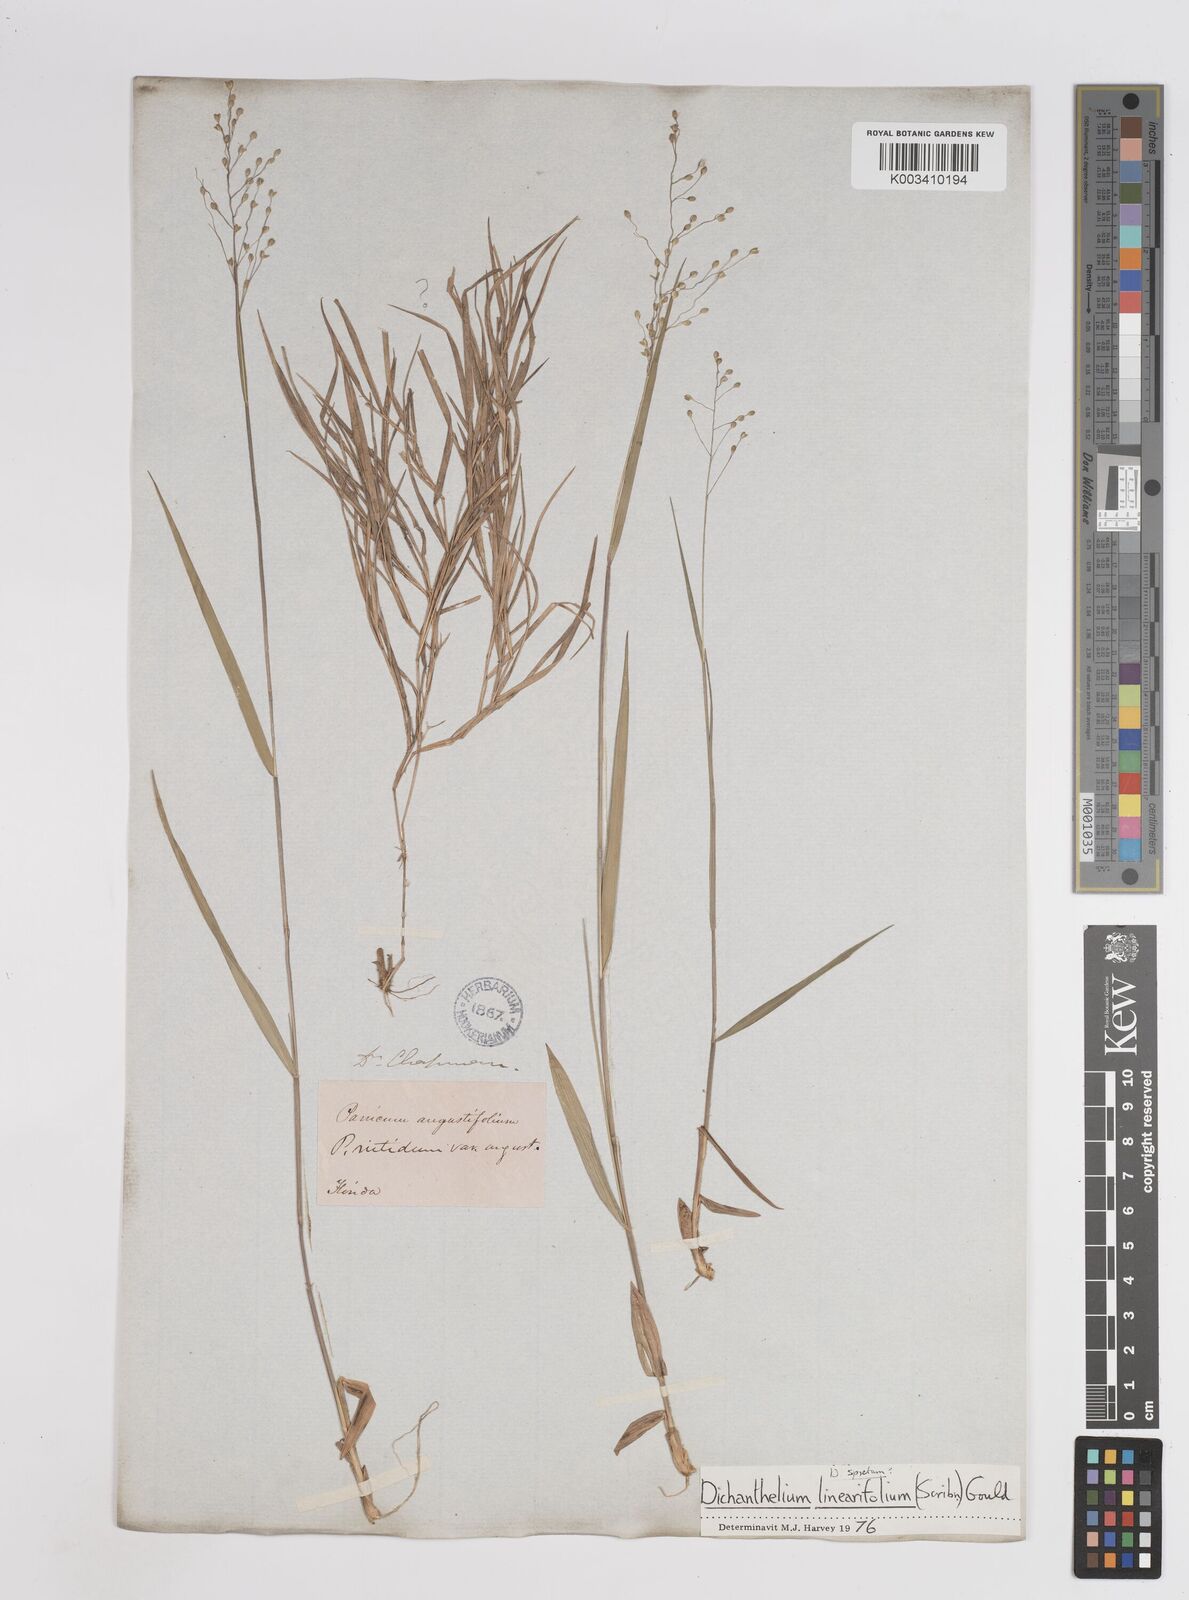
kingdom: Plantae
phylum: Tracheophyta
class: Liliopsida
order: Poales
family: Poaceae
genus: Dichanthelium
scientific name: Dichanthelium linearifolium
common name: Linear-leaved panicgrass
